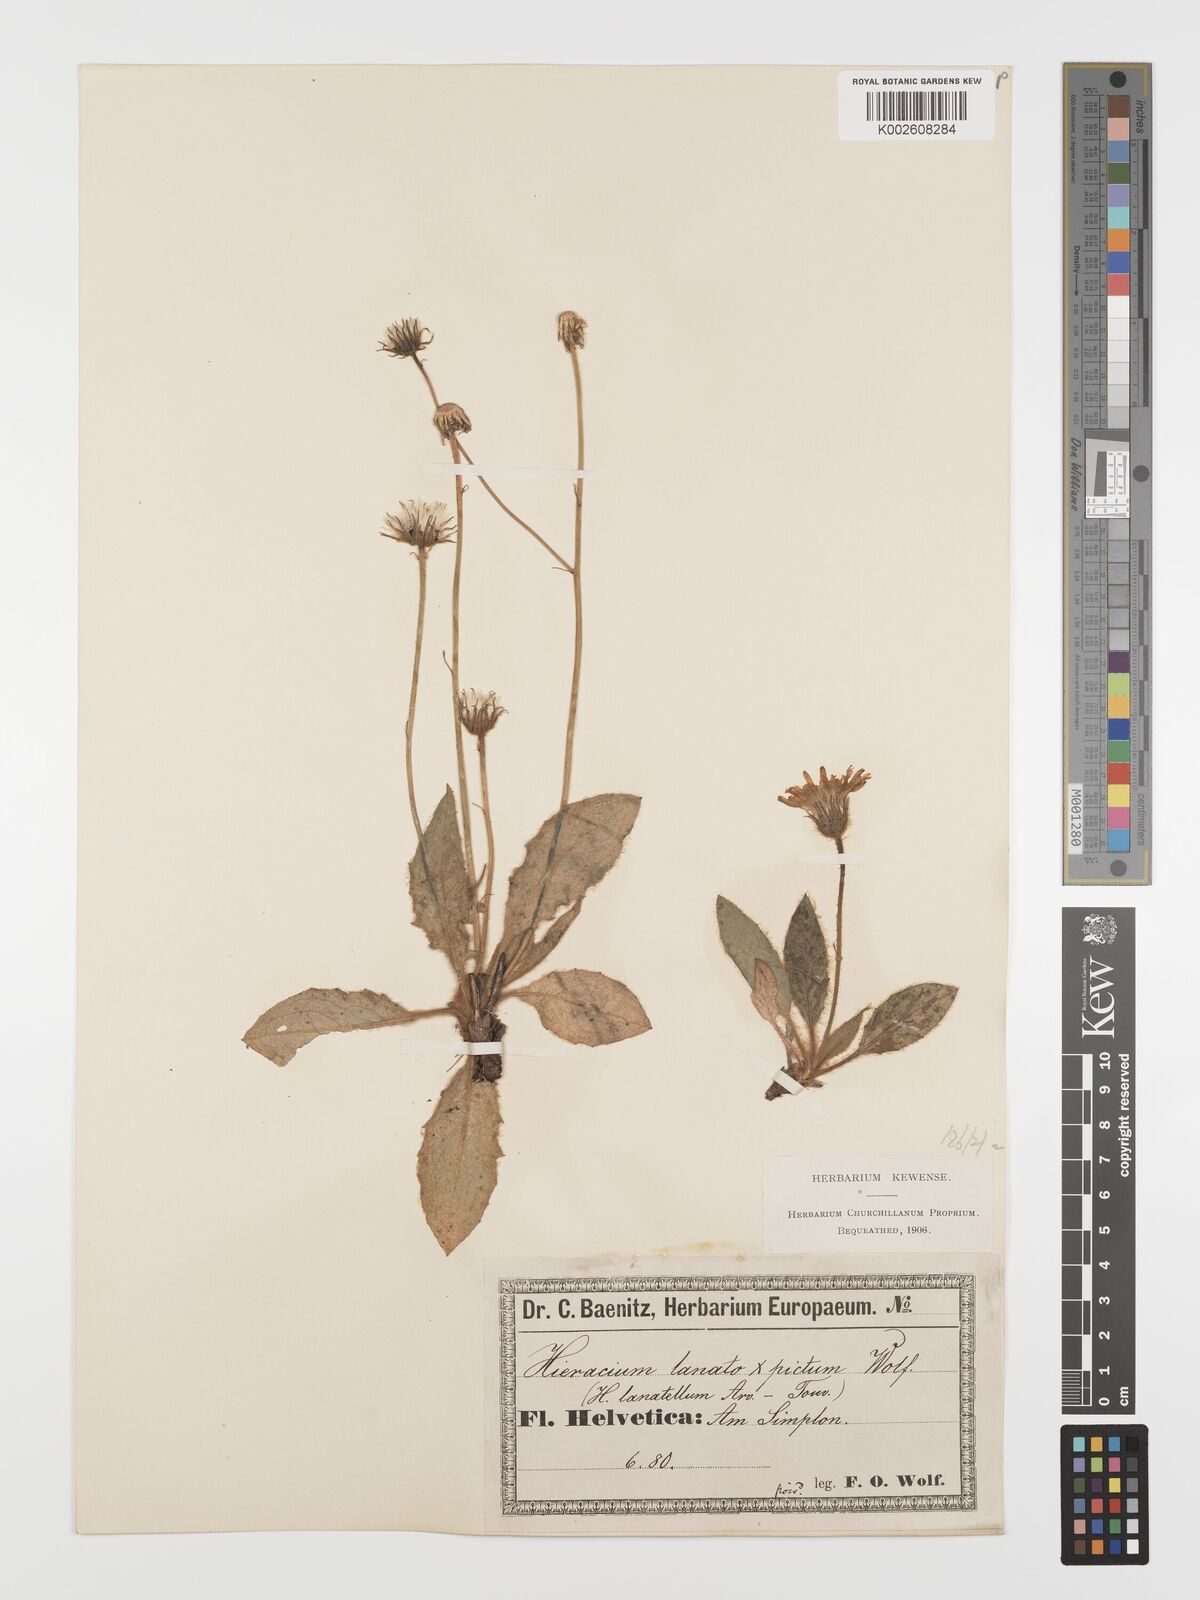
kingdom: Plantae
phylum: Tracheophyta
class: Magnoliopsida
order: Asterales
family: Asteraceae
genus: Hieracium
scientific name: Hieracium pulchellum
